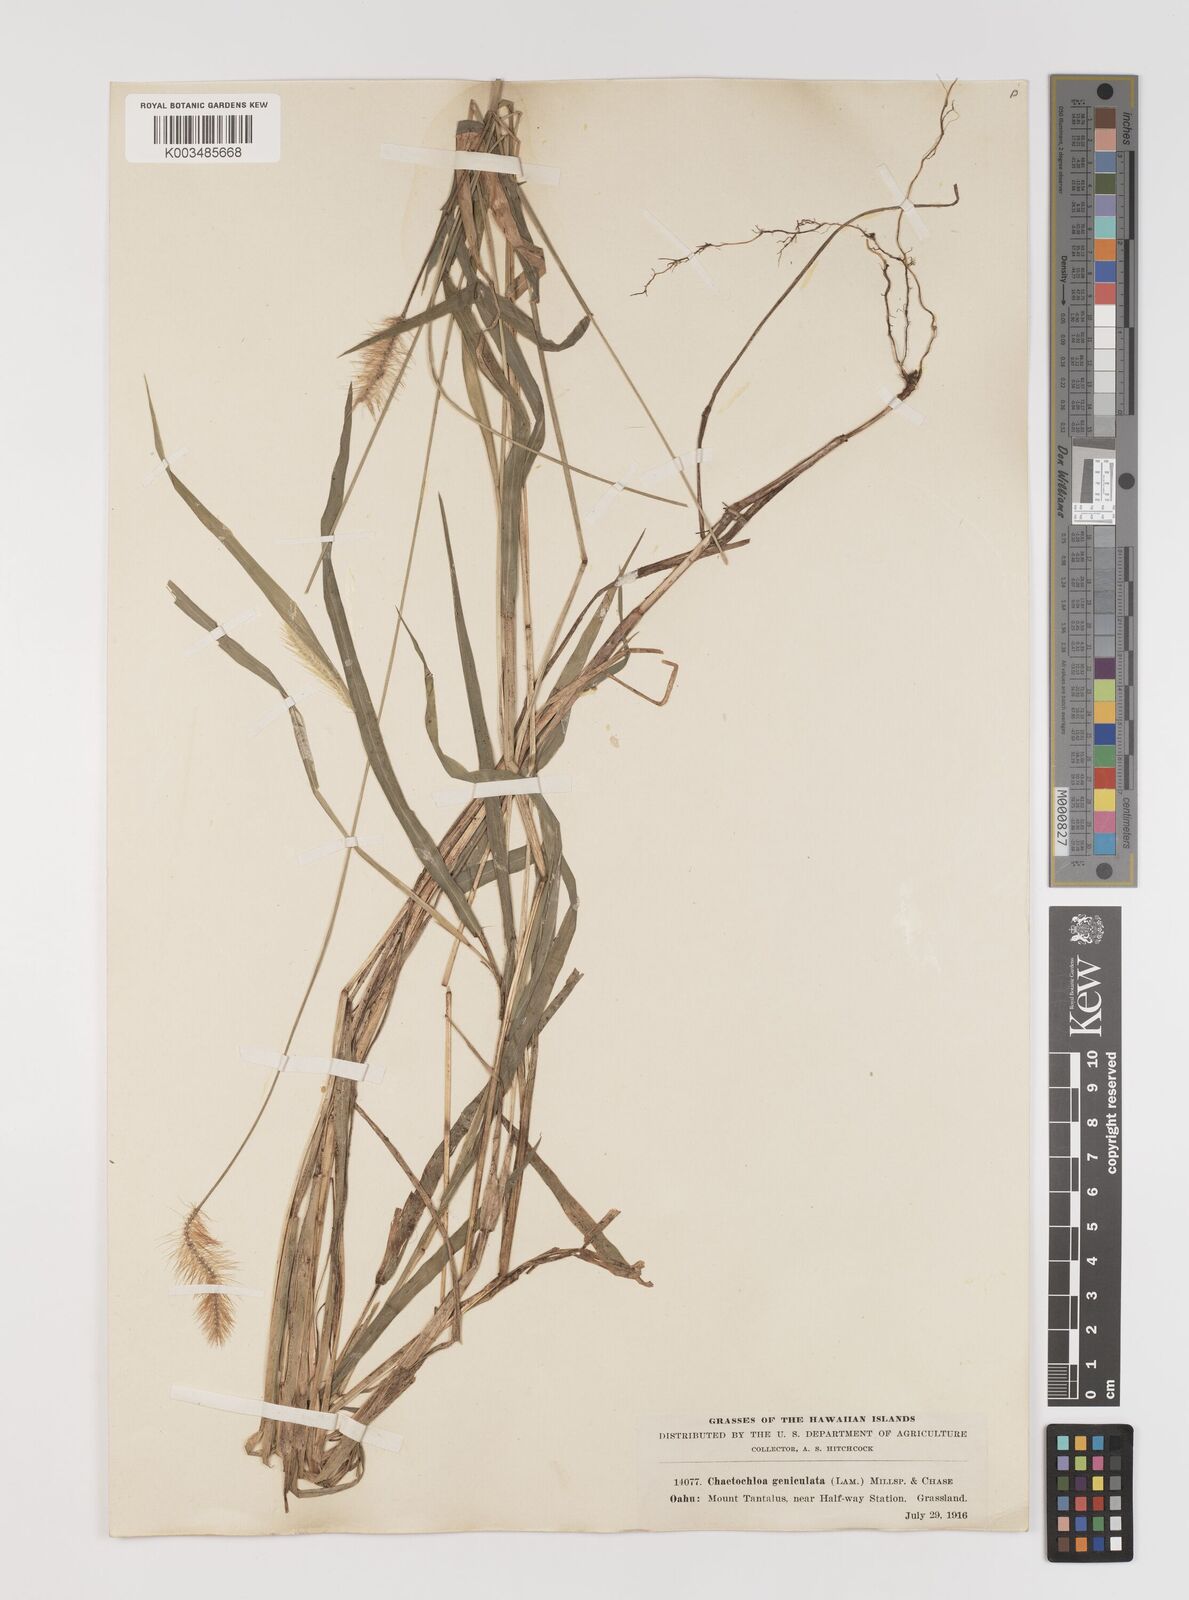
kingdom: Plantae
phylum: Tracheophyta
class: Liliopsida
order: Poales
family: Poaceae
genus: Setaria
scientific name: Setaria parviflora
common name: Knotroot bristle-grass
